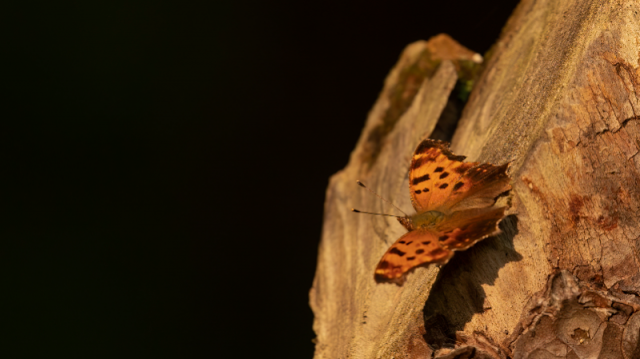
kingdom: Animalia
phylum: Arthropoda
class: Insecta
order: Lepidoptera
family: Nymphalidae
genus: Polygonia
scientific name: Polygonia comma
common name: Eastern Comma
